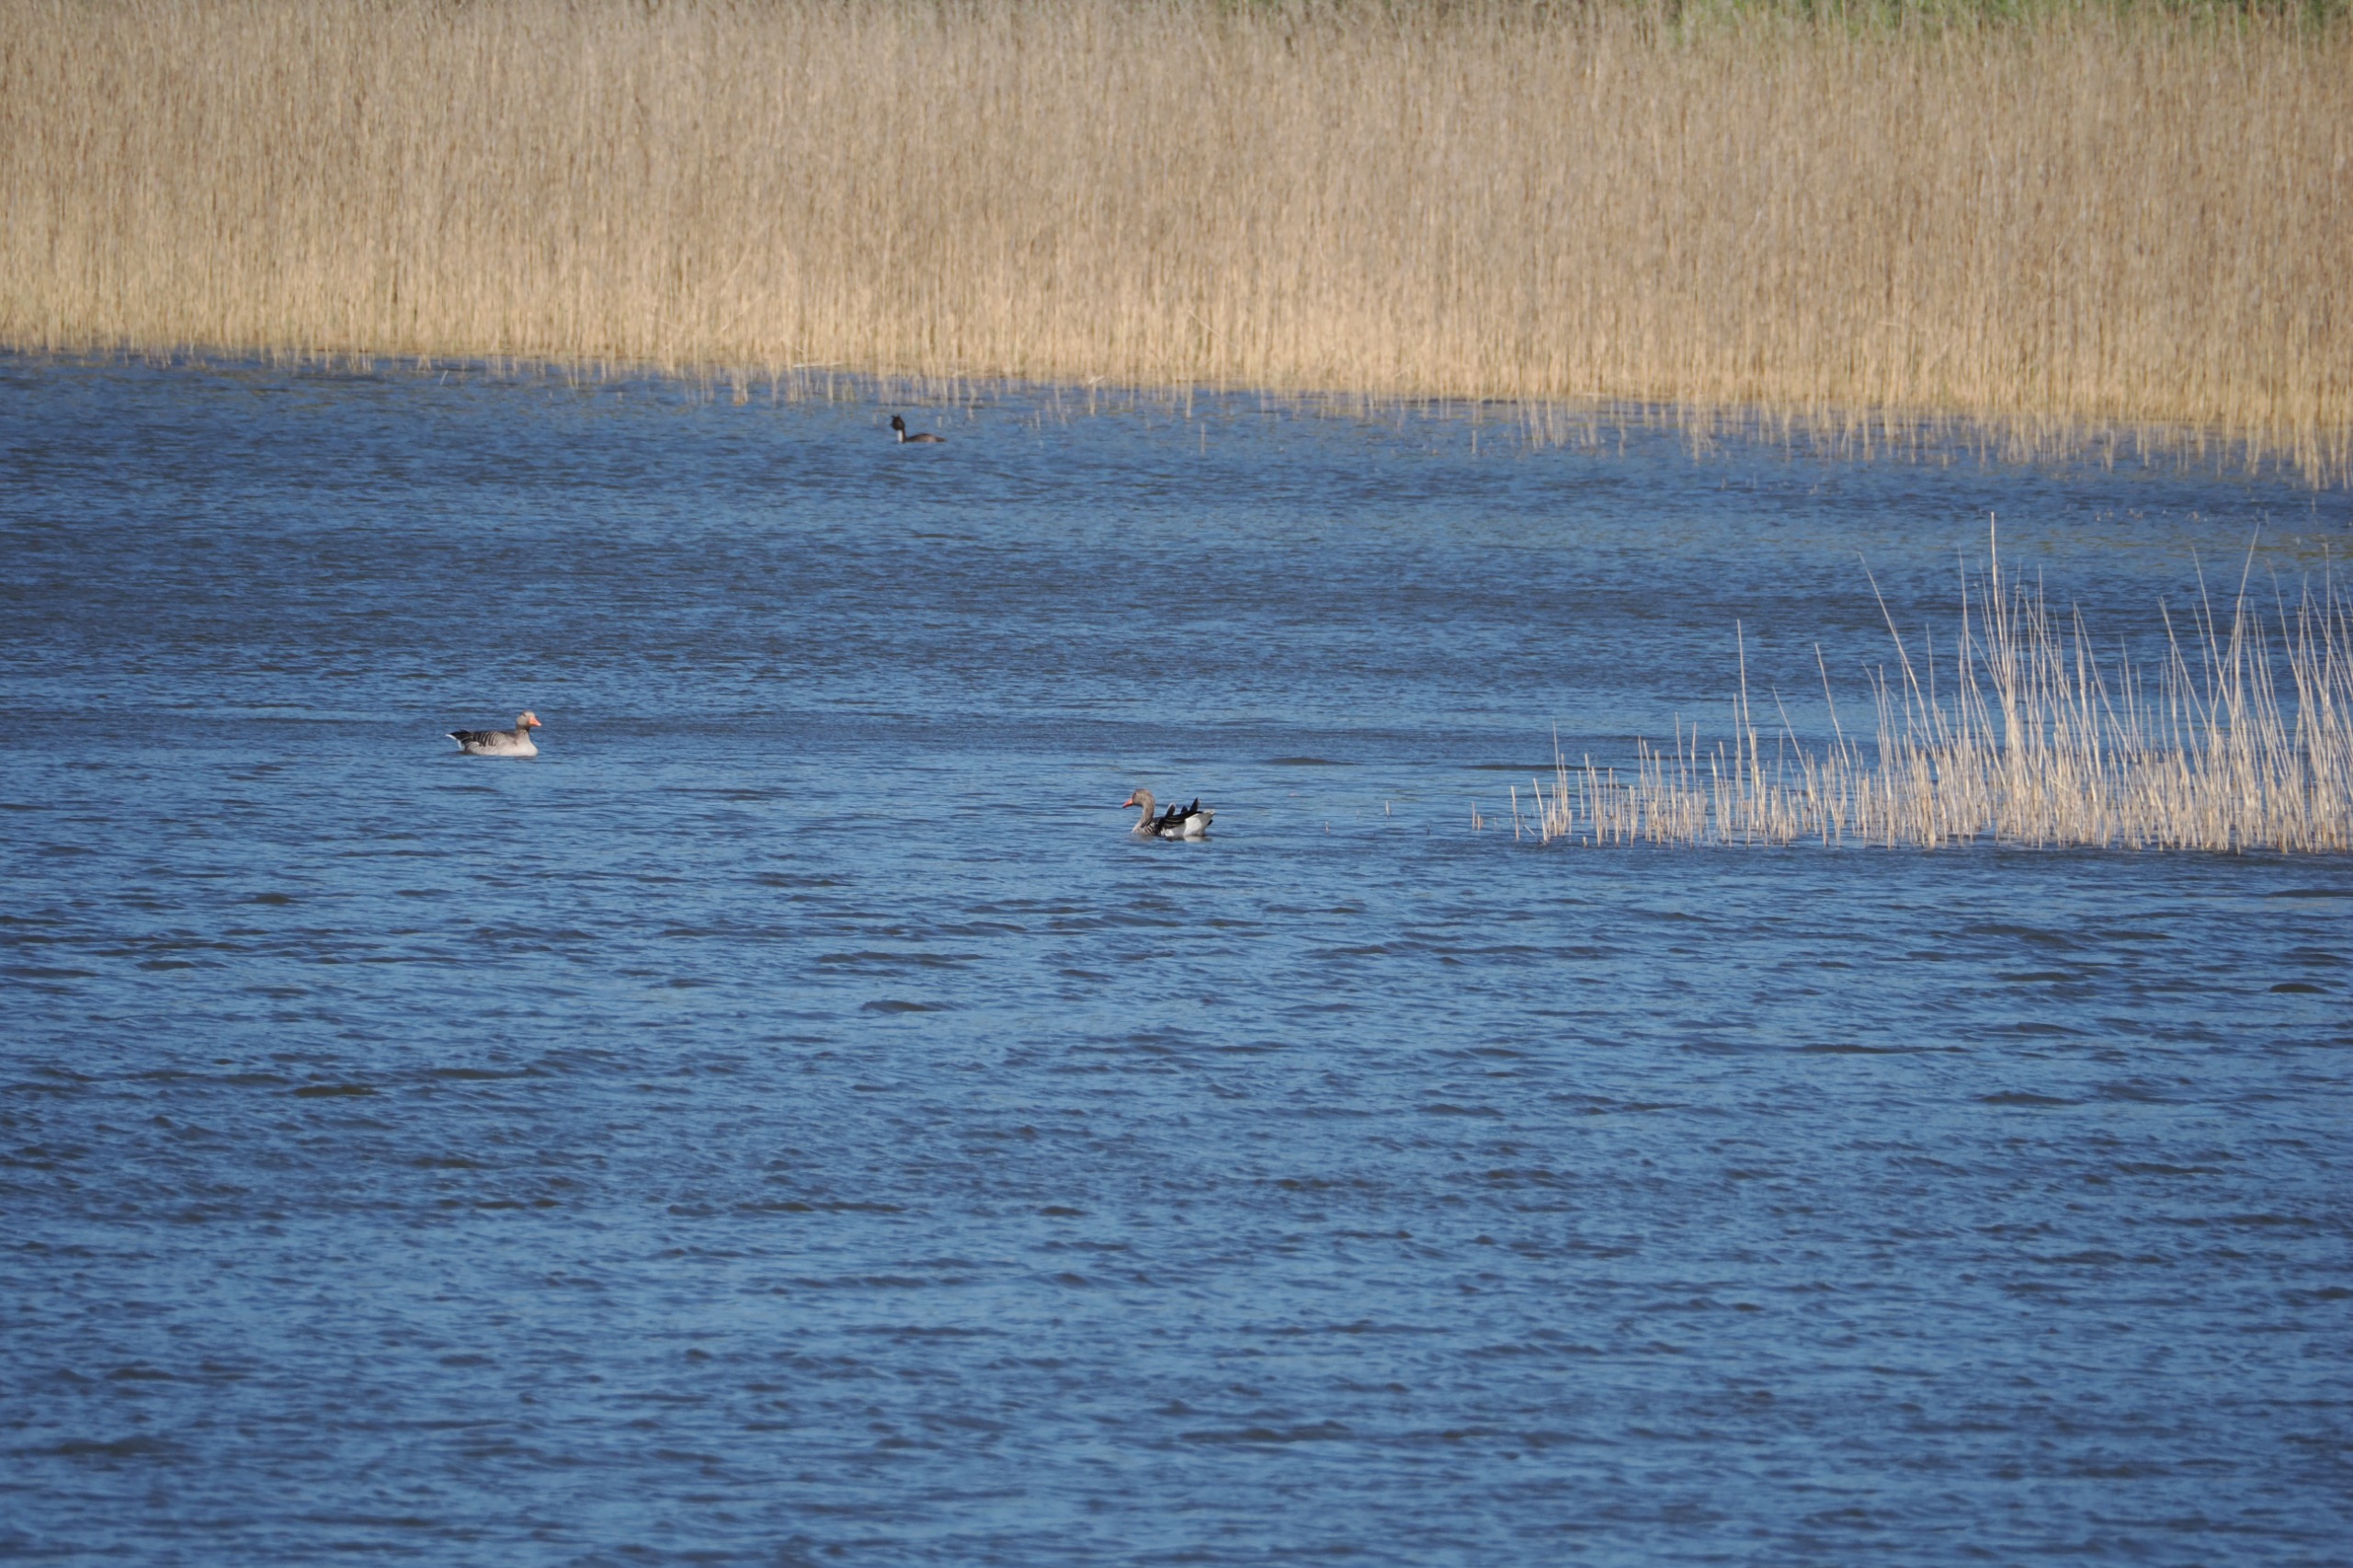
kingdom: Animalia
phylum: Chordata
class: Aves
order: Anseriformes
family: Anatidae
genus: Anser
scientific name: Anser anser
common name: Grågås
